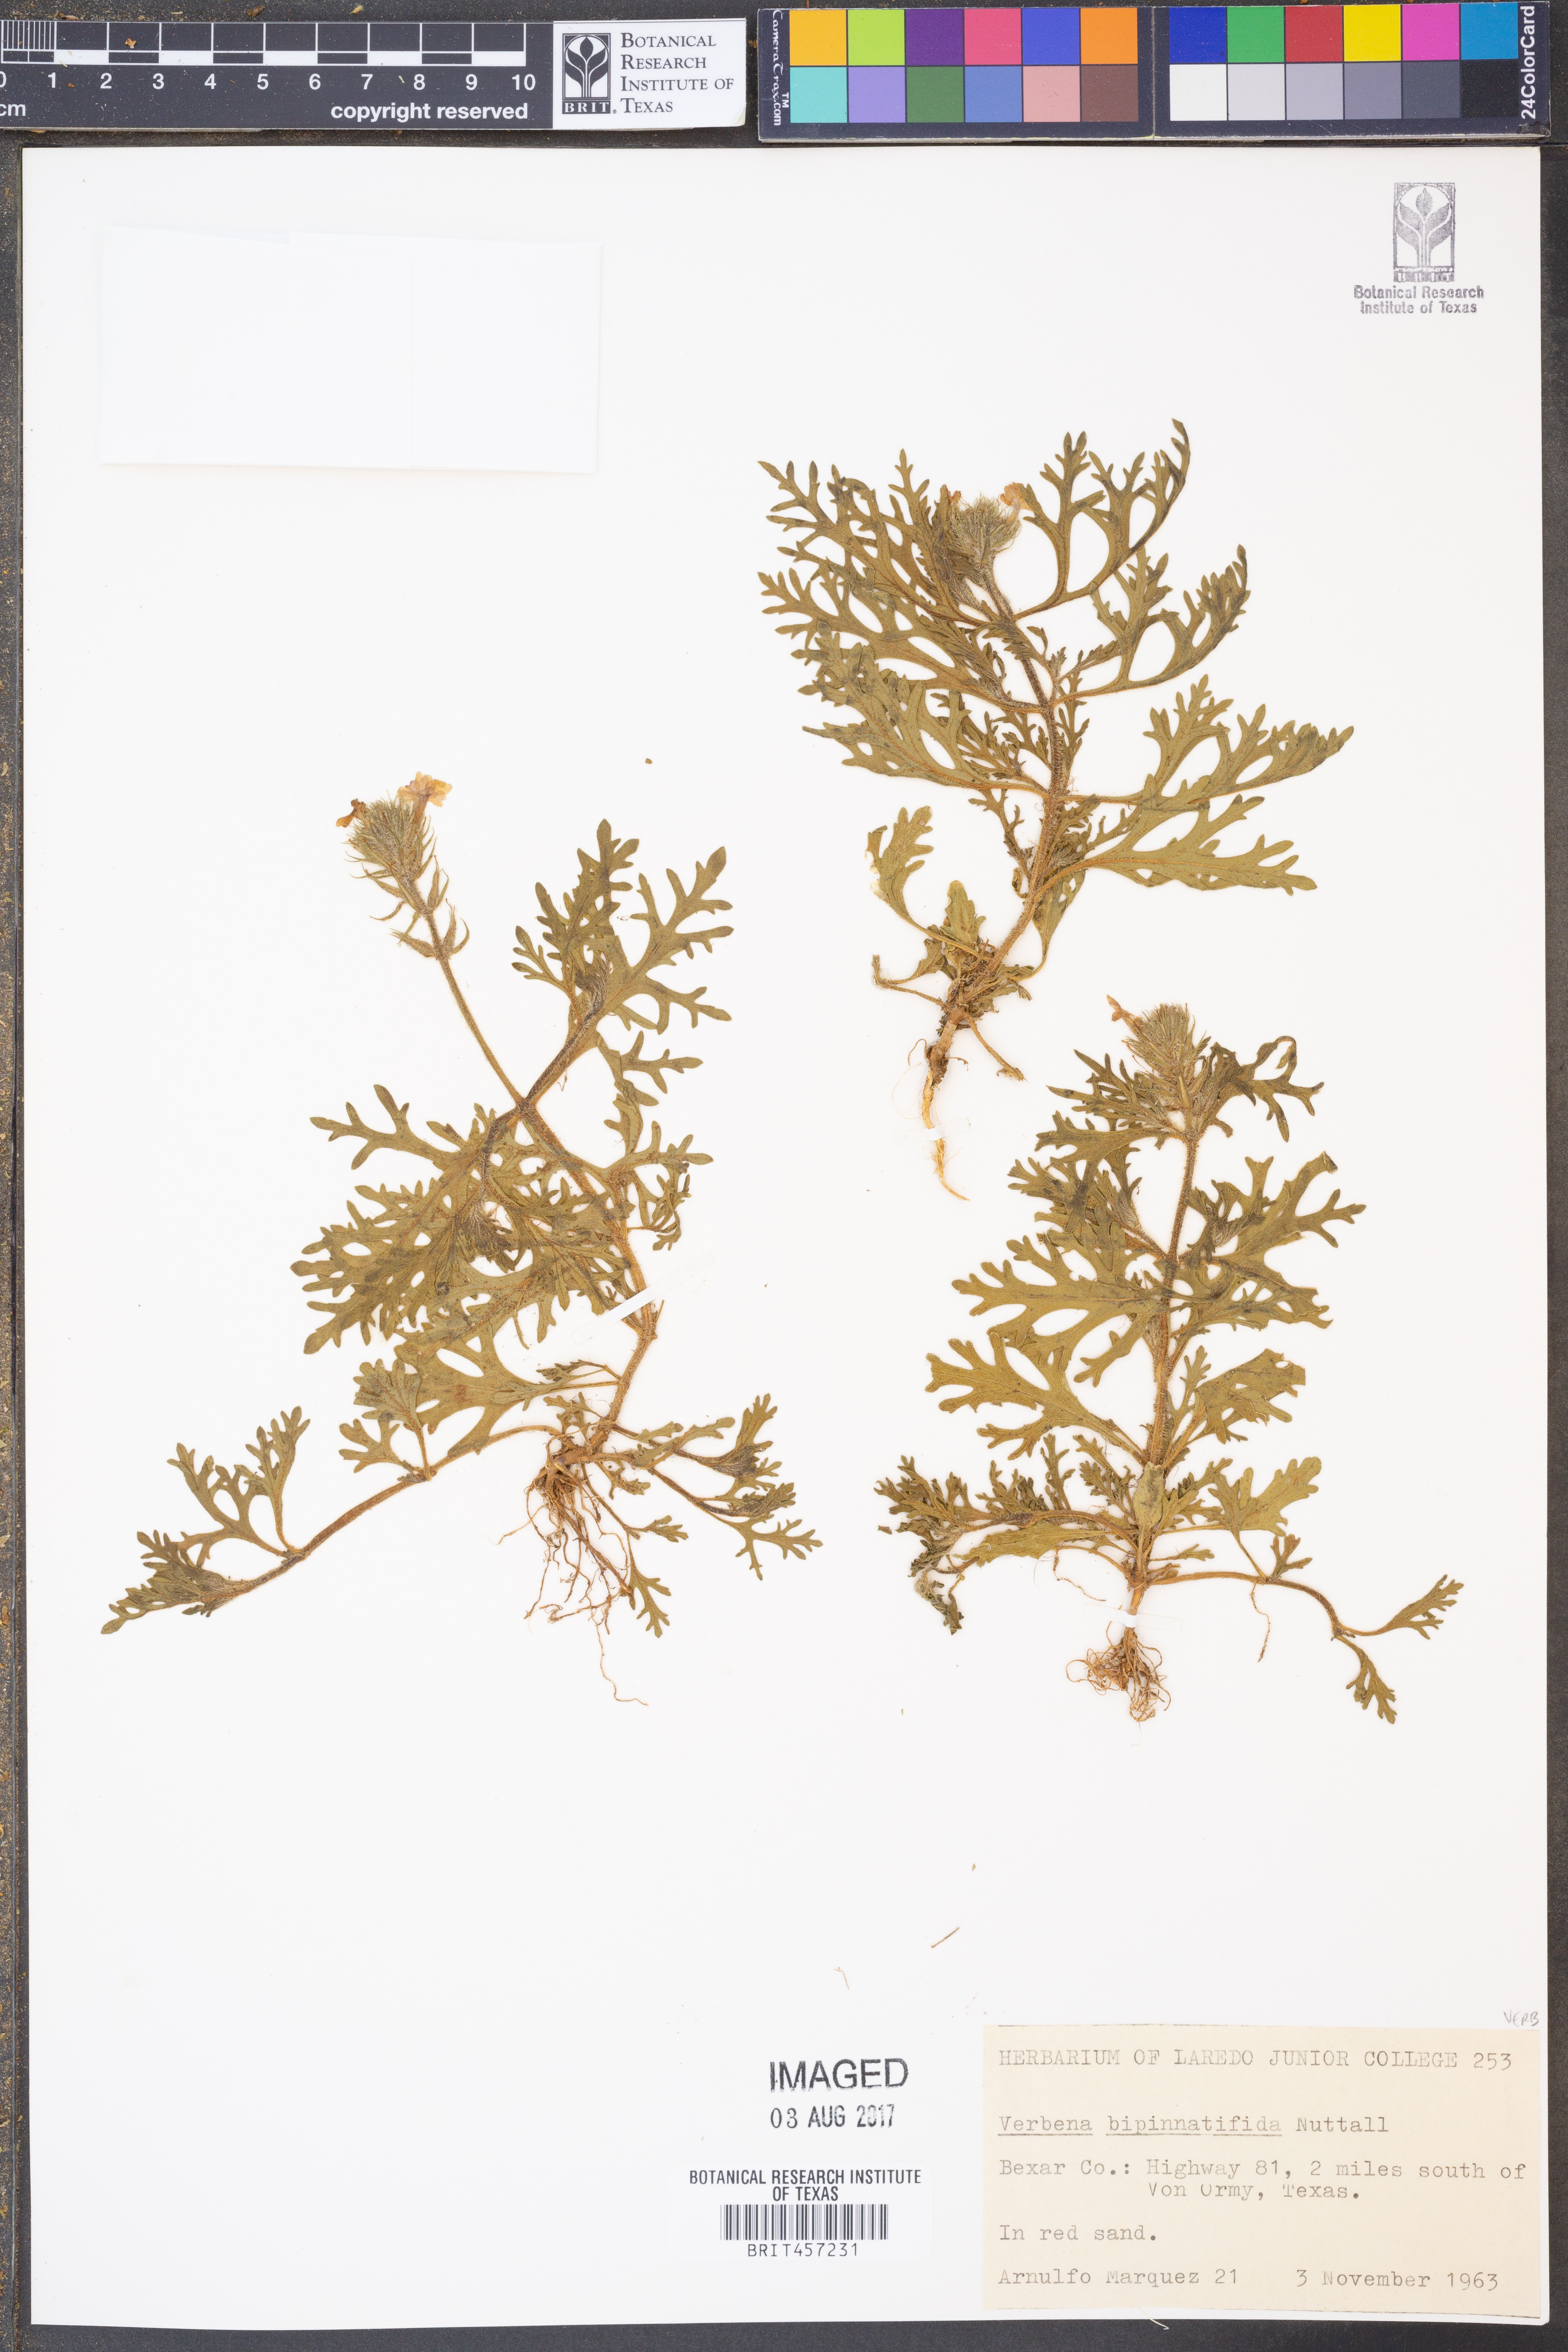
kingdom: Plantae
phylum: Tracheophyta
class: Magnoliopsida
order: Lamiales
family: Verbenaceae
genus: Verbena
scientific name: Verbena bipinnatifida
